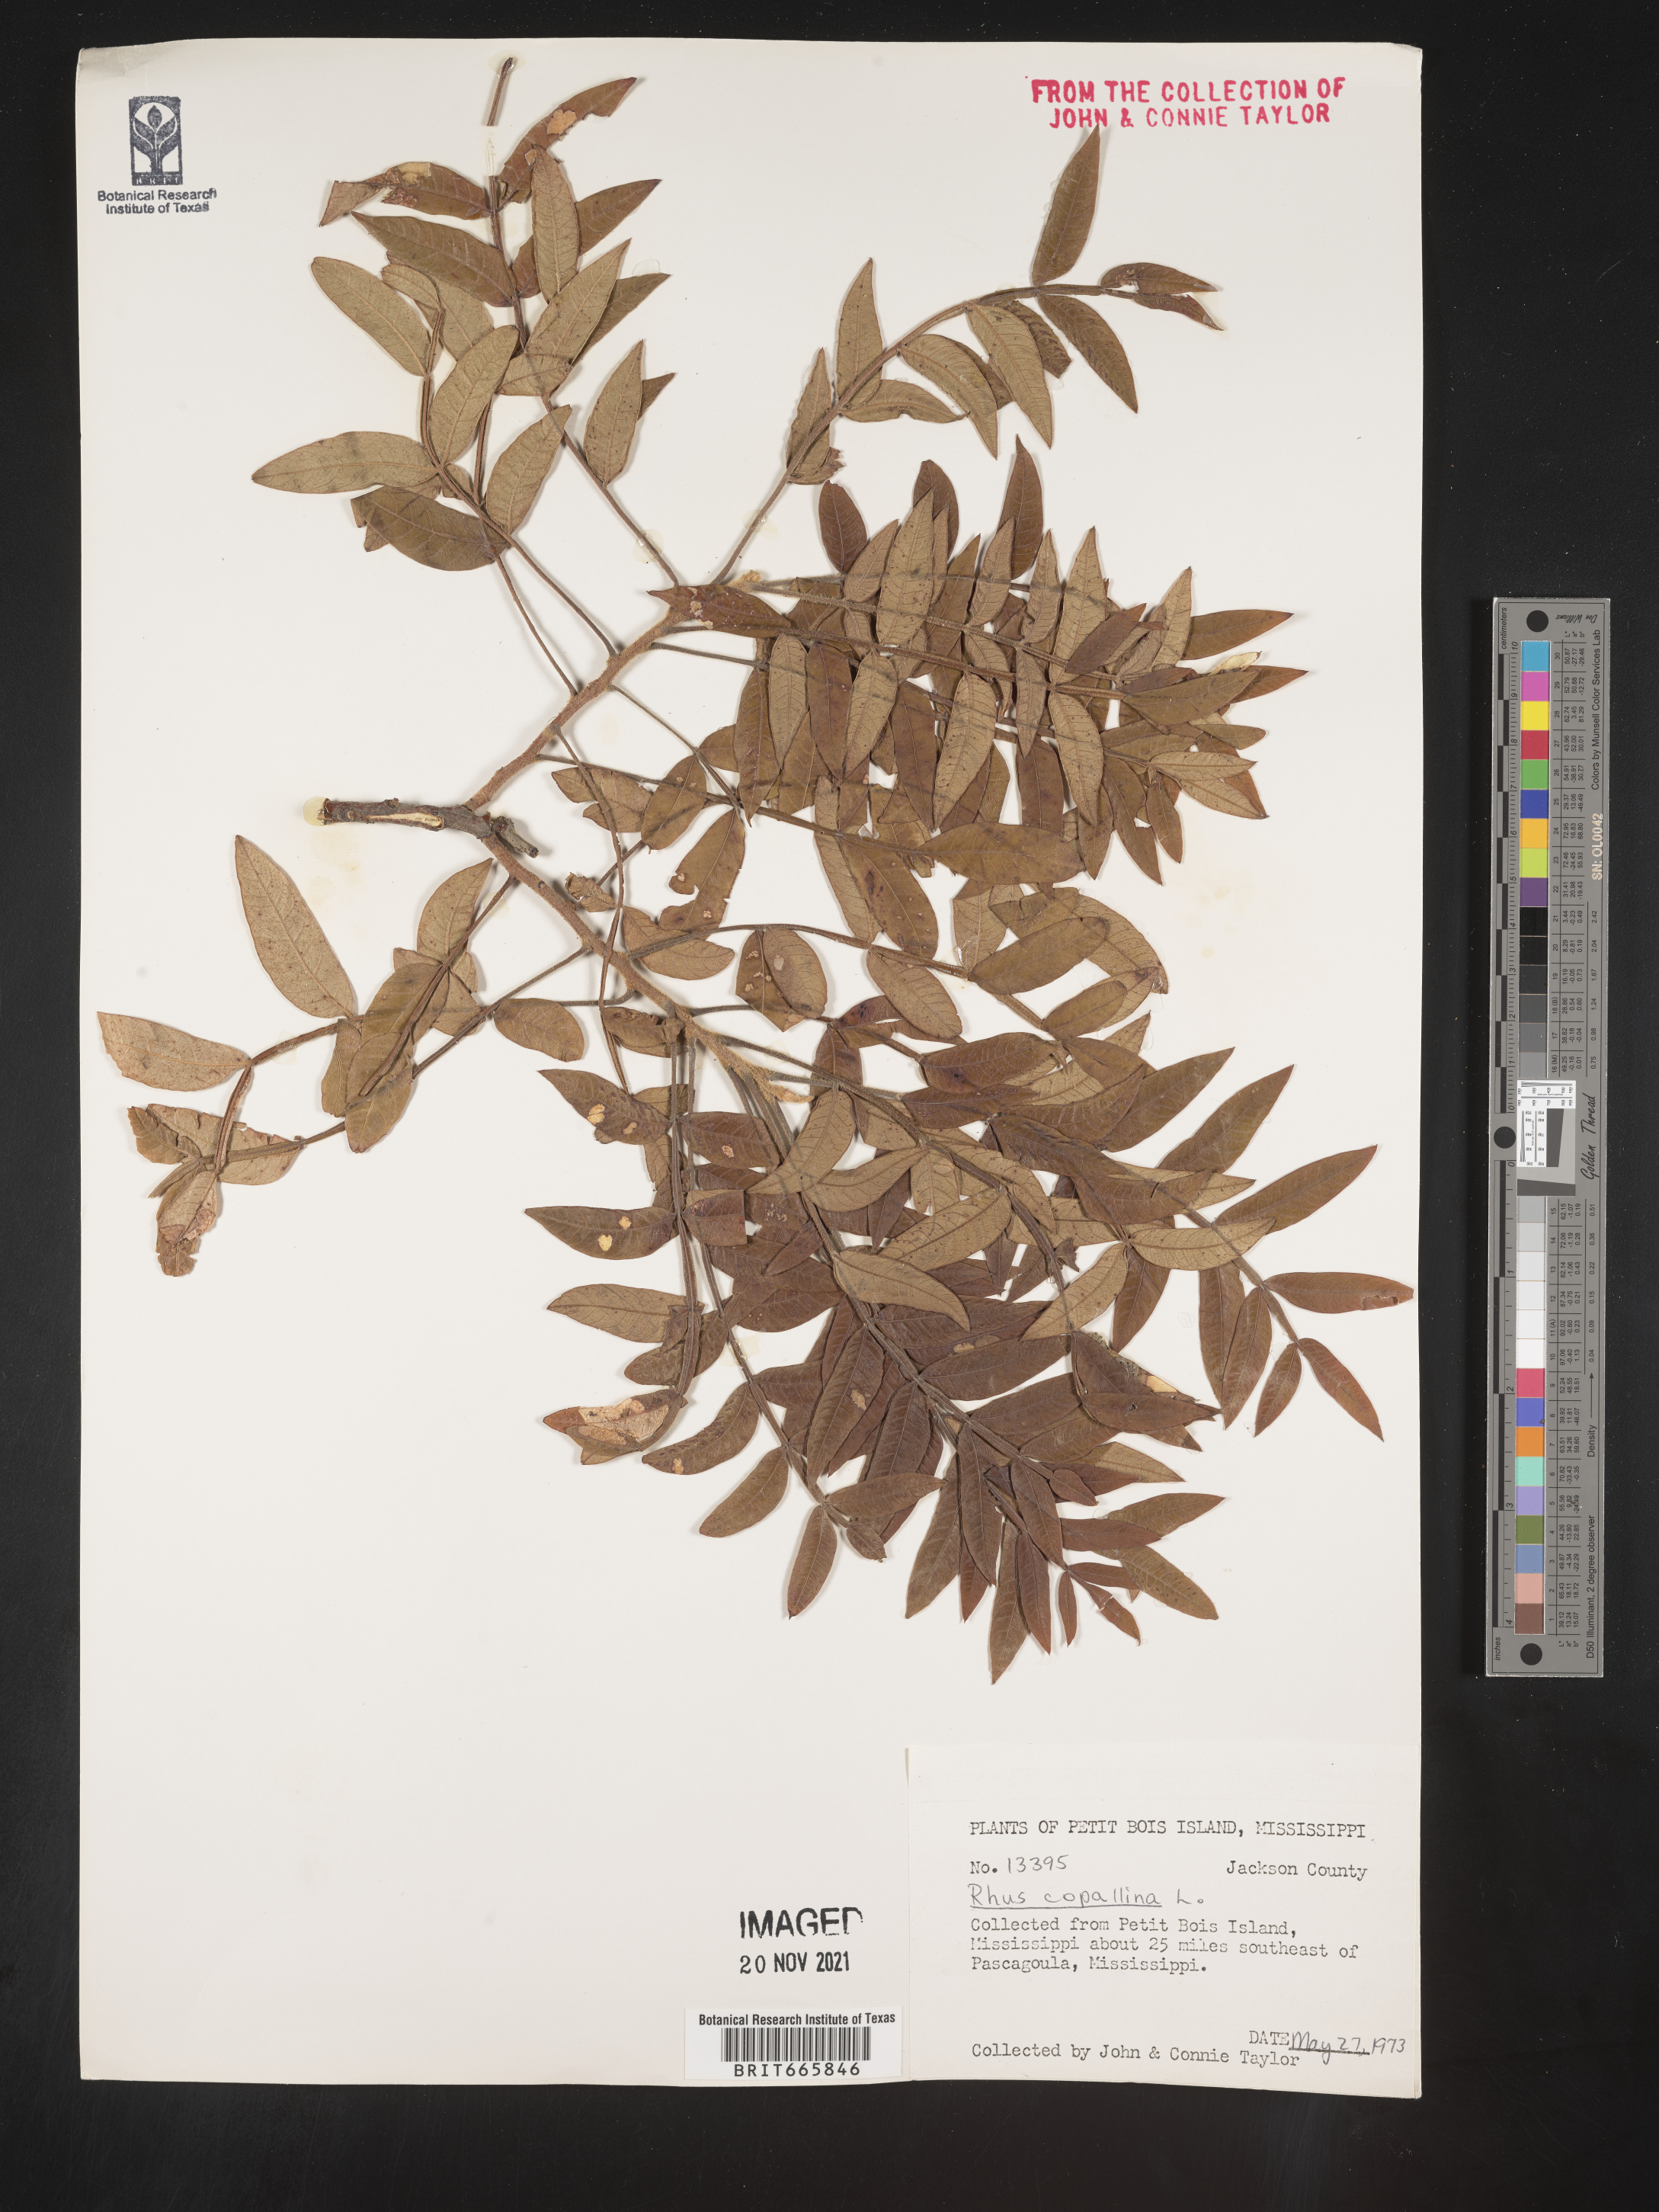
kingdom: Plantae
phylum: Tracheophyta
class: Magnoliopsida
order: Sapindales
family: Anacardiaceae
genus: Rhus
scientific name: Rhus copallina
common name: Shining sumac
